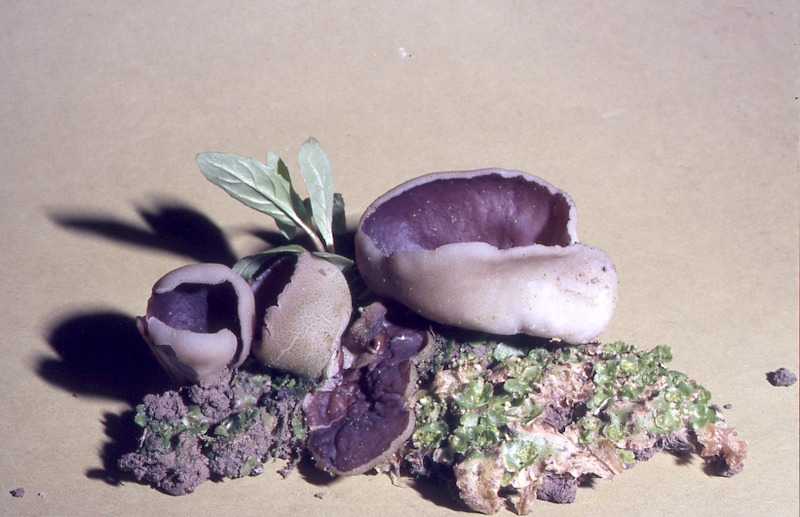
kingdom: Fungi
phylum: Ascomycota
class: Pezizomycetes
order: Pezizales
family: Pezizaceae
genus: Sarcosphaera
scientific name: Sarcosphaera coronaria
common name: Violet crowncup
